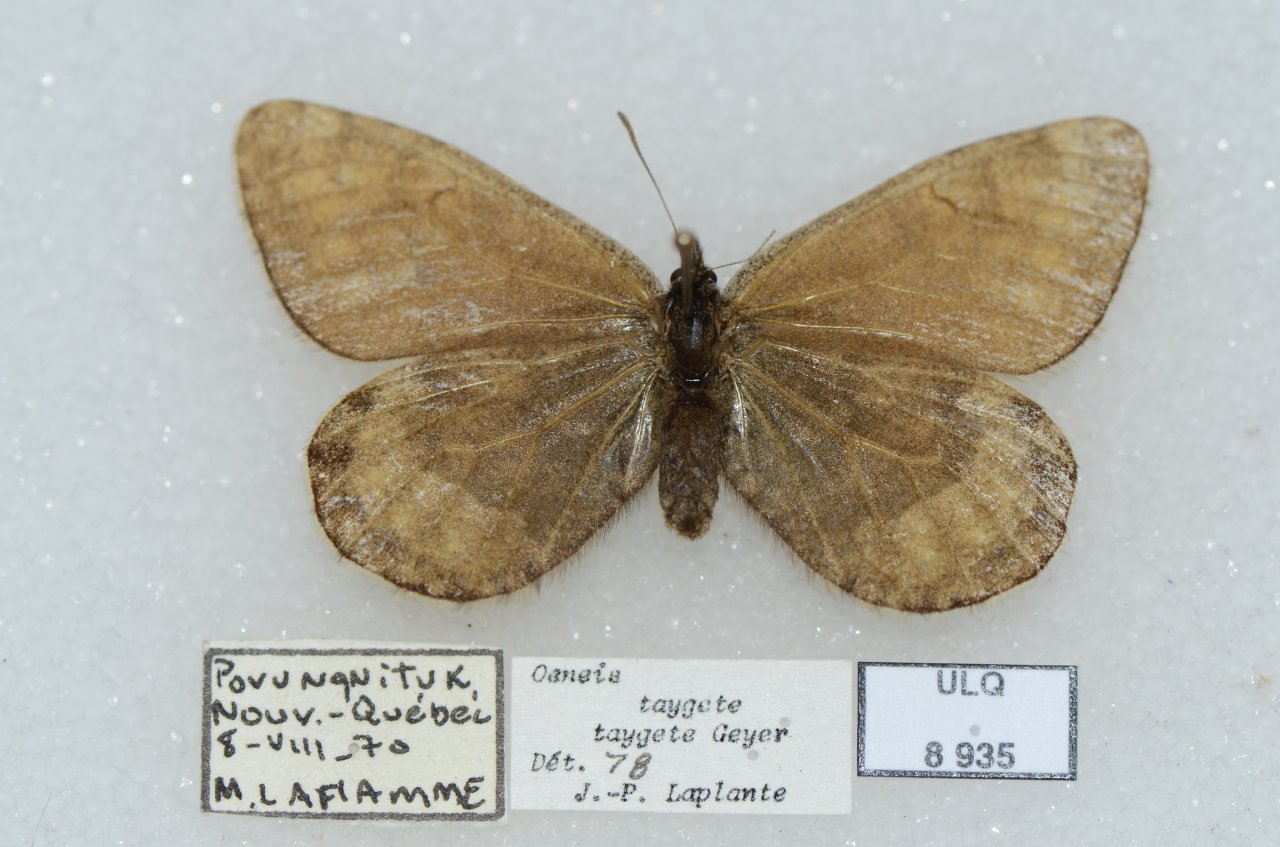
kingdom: Animalia
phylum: Arthropoda
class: Insecta
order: Lepidoptera
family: Nymphalidae
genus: Oeneis
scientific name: Oeneis bore
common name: White-veined Arctic
